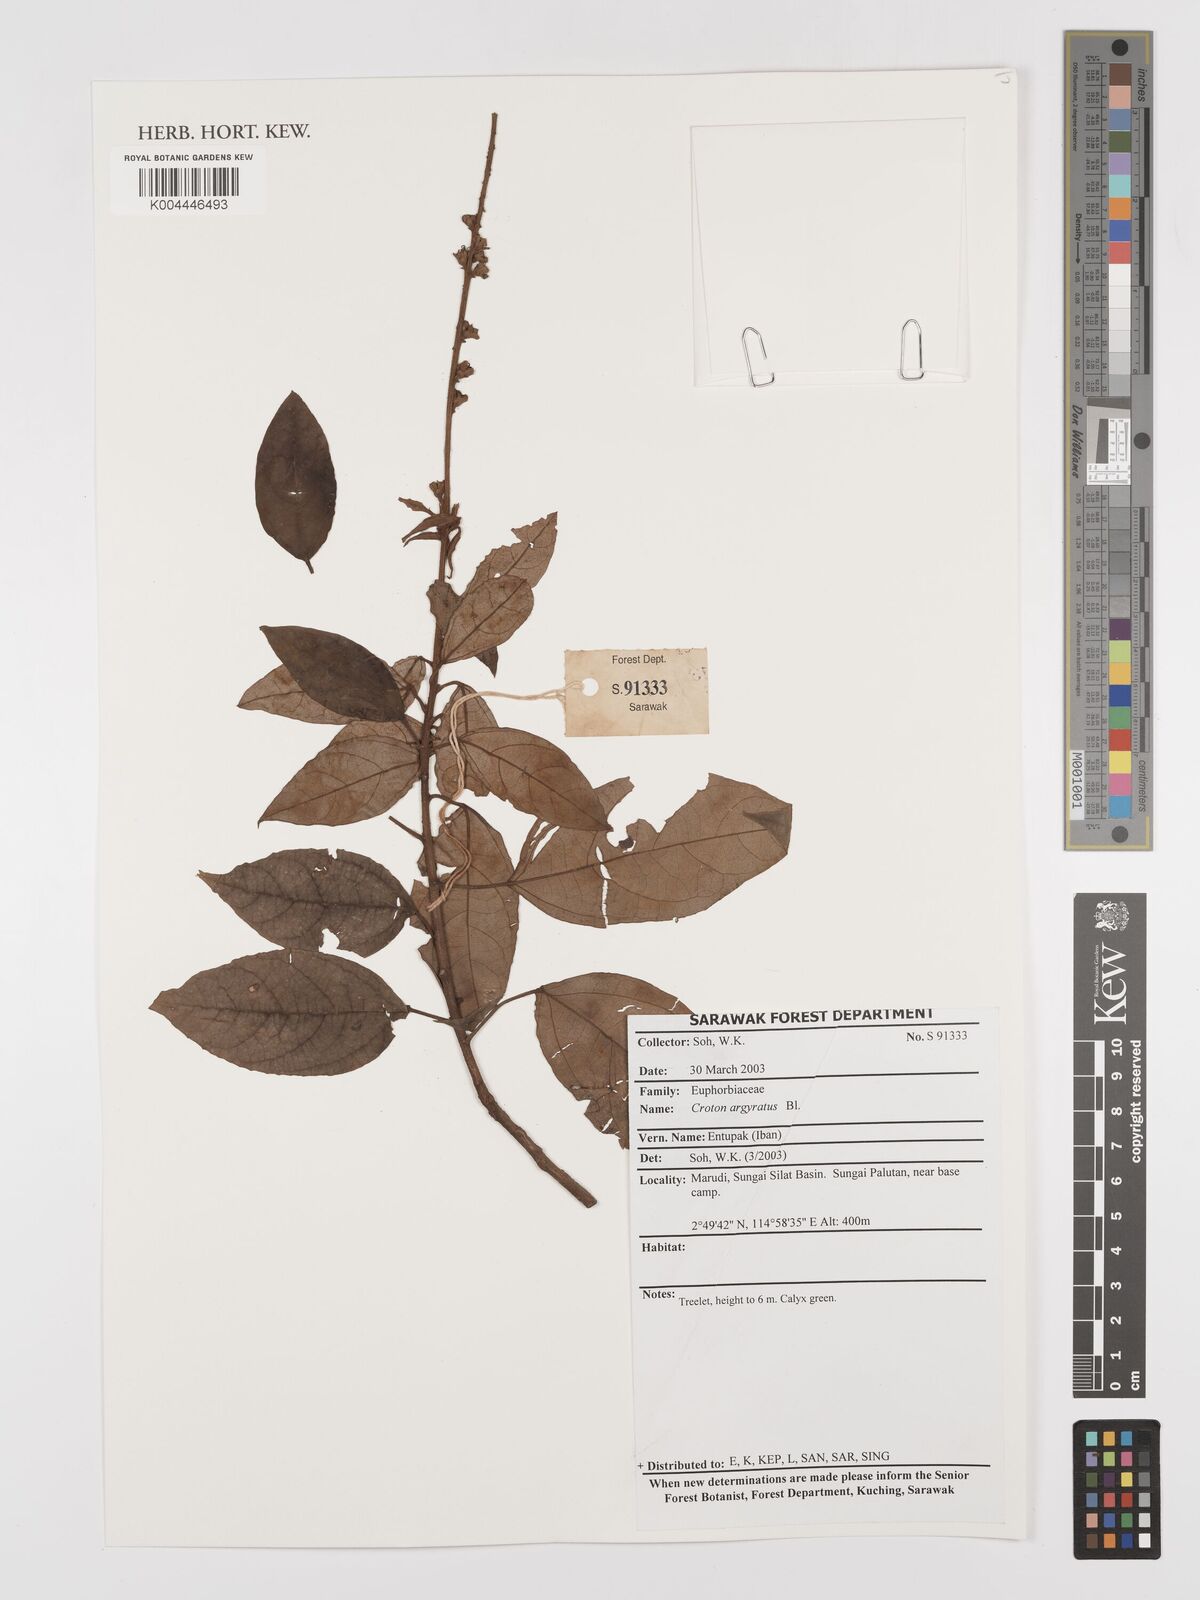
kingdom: Plantae
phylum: Tracheophyta
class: Magnoliopsida
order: Malpighiales
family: Euphorbiaceae
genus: Croton
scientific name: Croton argyratus
